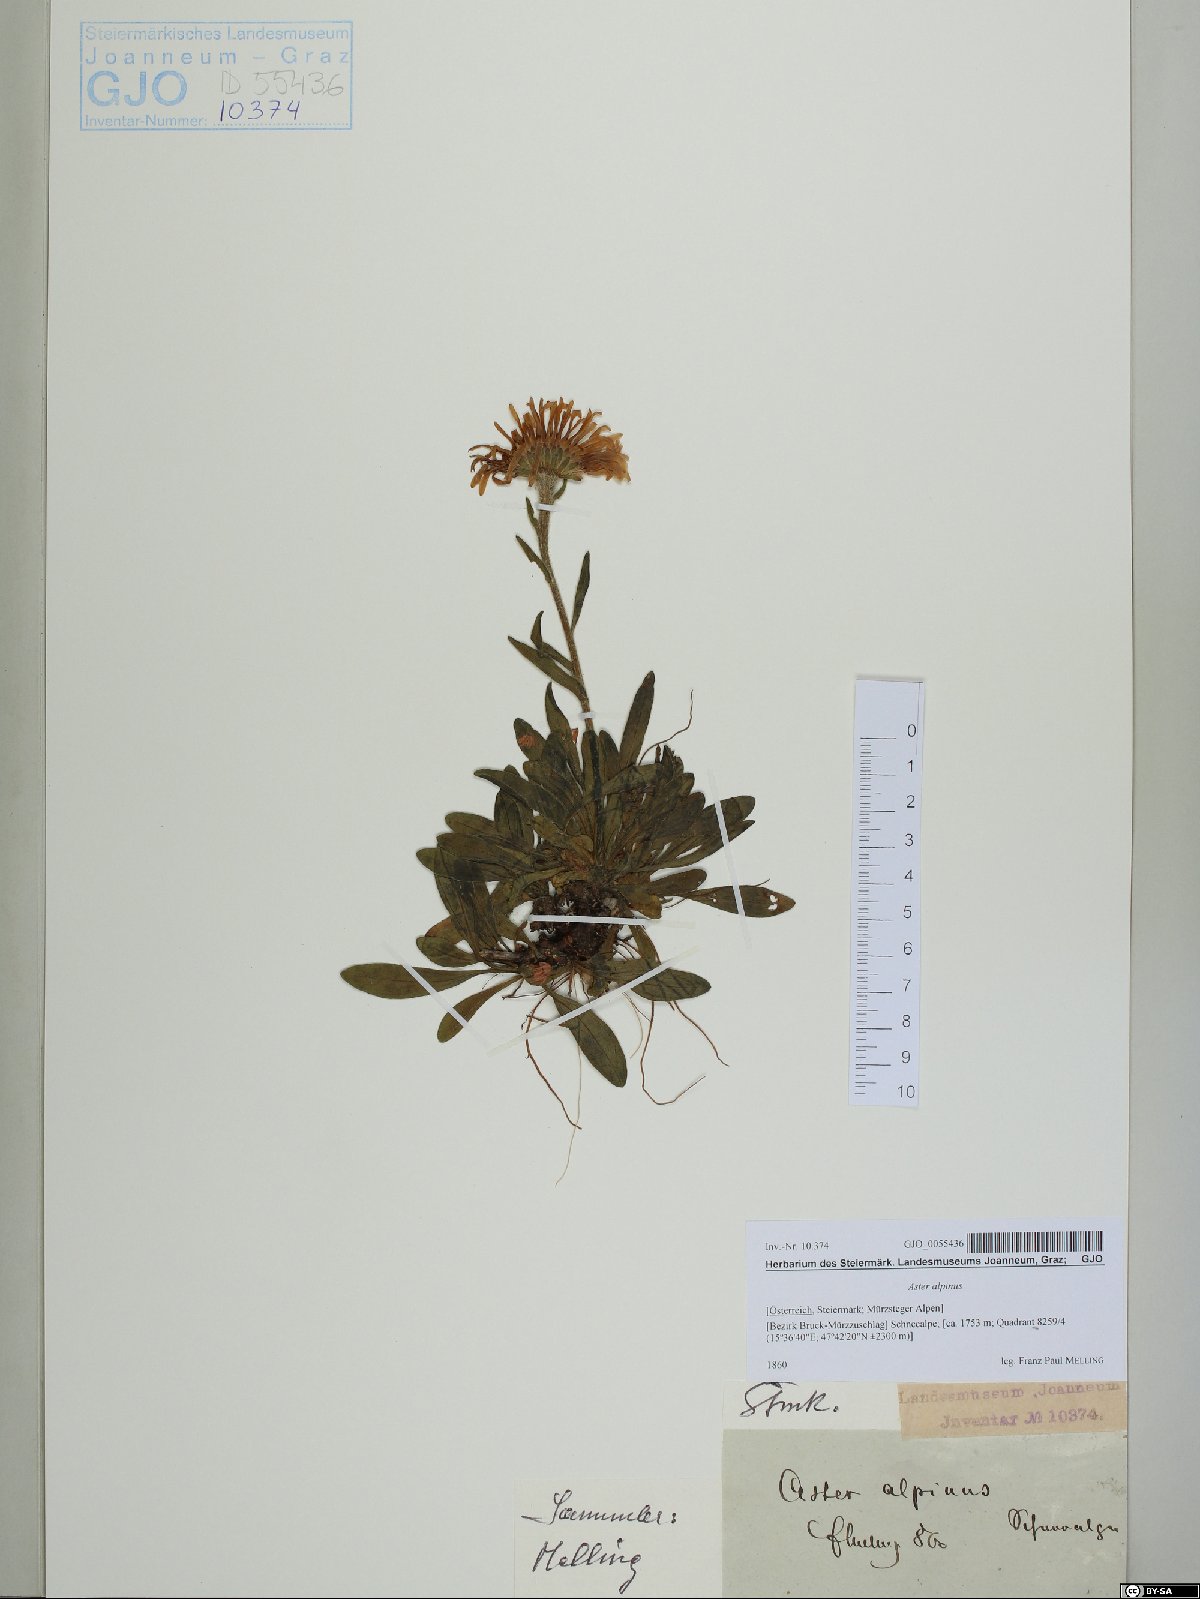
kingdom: Plantae
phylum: Tracheophyta
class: Magnoliopsida
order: Asterales
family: Asteraceae
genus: Aster
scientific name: Aster alpinus
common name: Alpine aster
